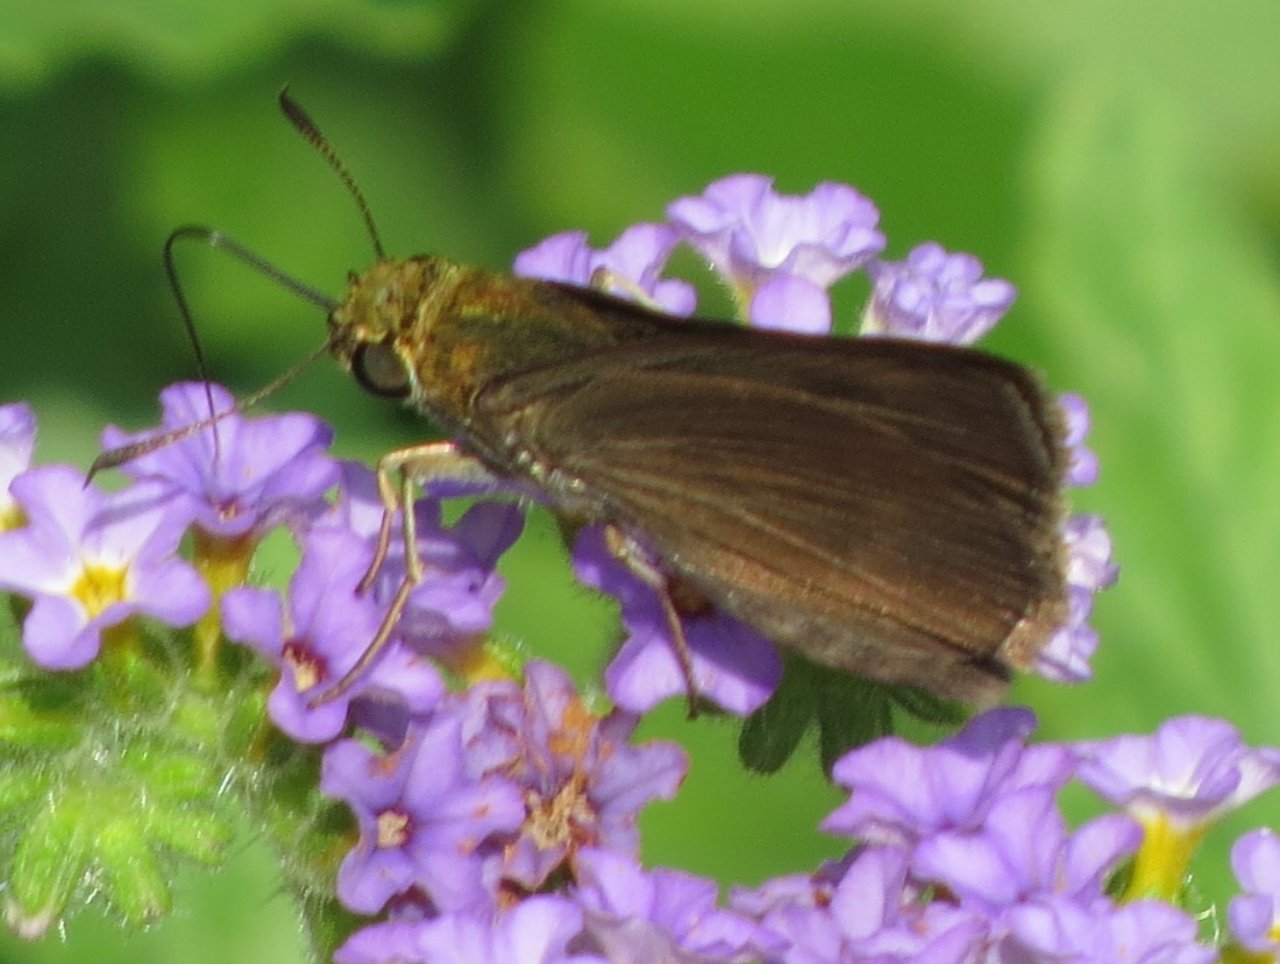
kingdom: Animalia
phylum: Arthropoda
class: Insecta
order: Lepidoptera
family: Hesperiidae
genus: Euphyes
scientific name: Euphyes vestris
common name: Dun Skipper
